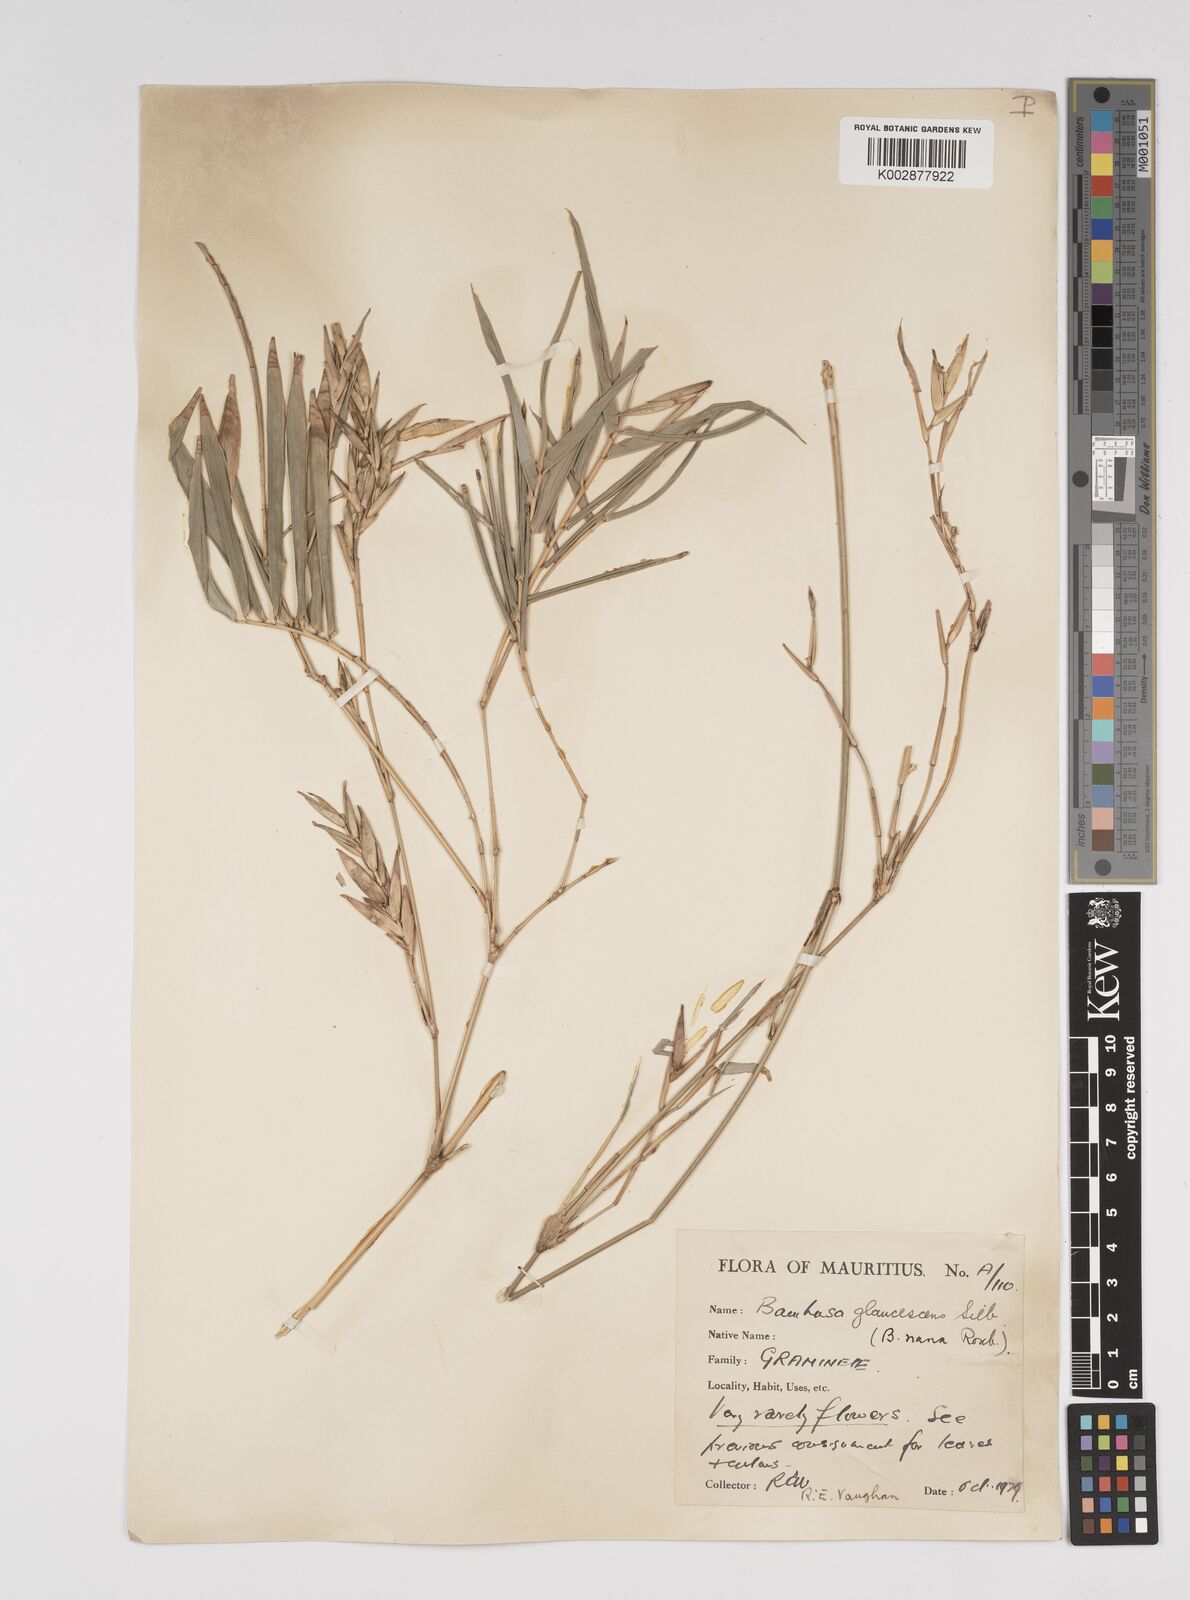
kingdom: Plantae
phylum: Tracheophyta
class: Liliopsida
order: Poales
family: Poaceae
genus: Bambusa
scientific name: Bambusa multiplex
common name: Hedge bamboo
